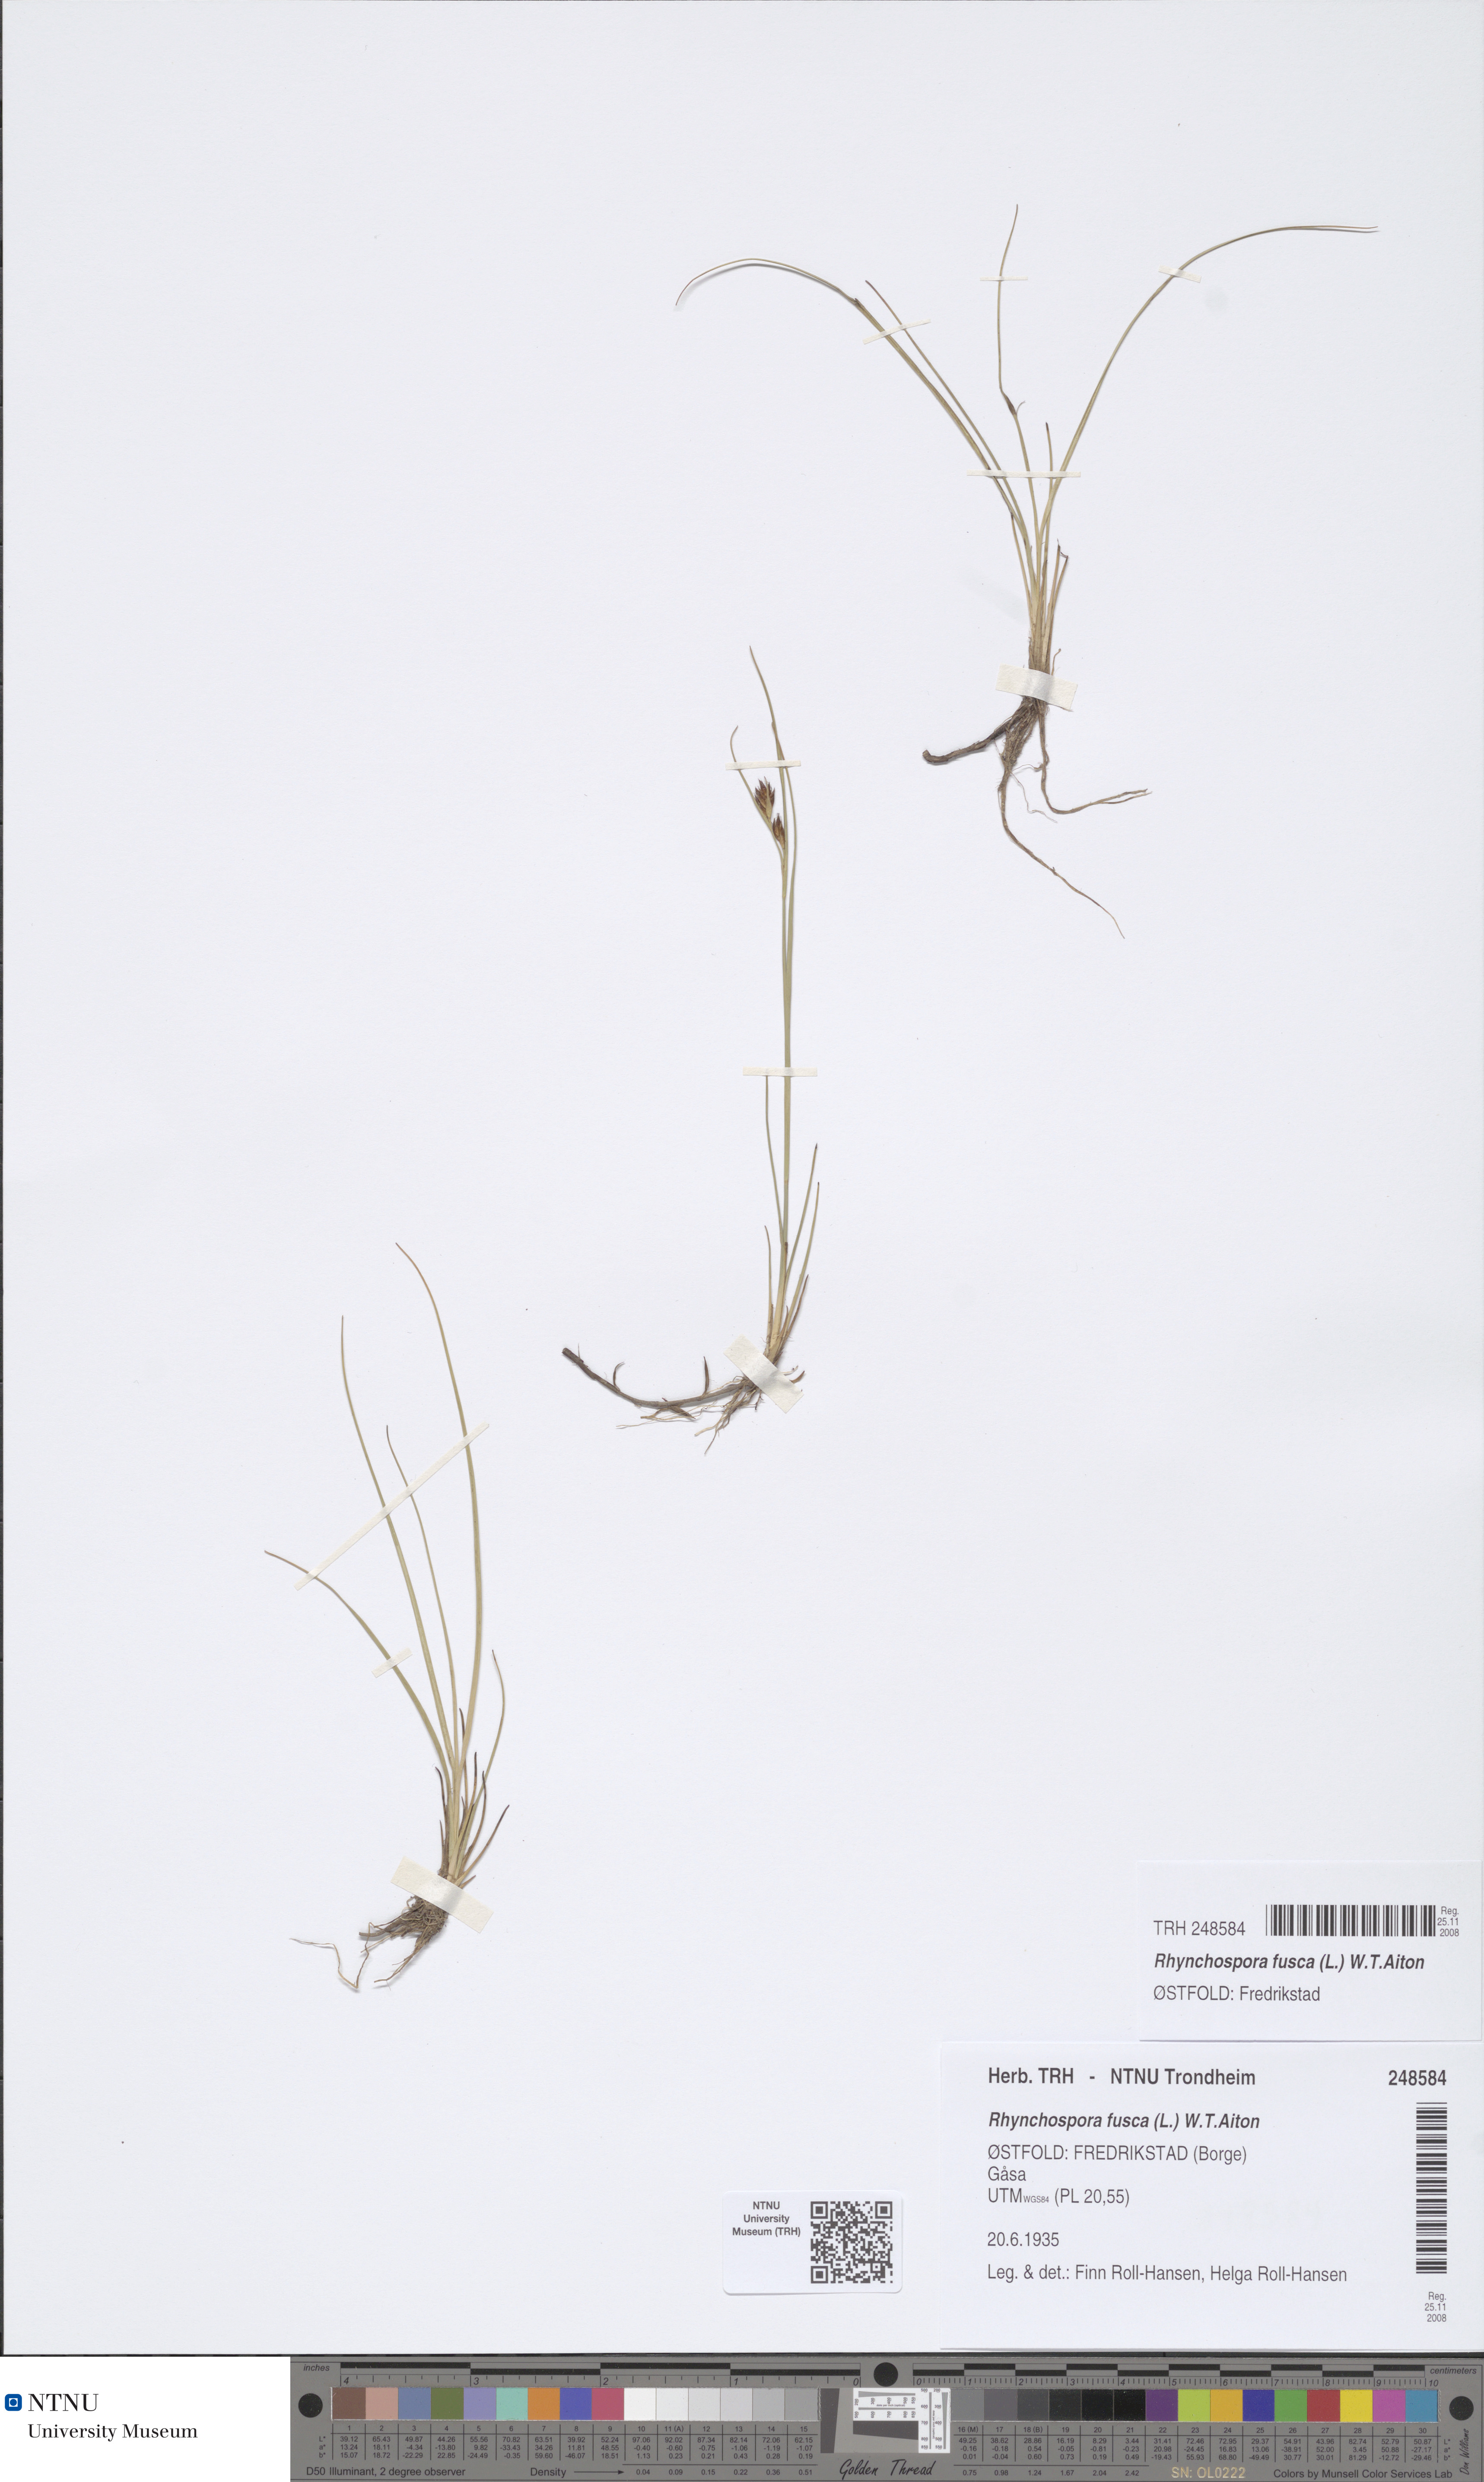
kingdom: Plantae
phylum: Tracheophyta
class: Liliopsida
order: Poales
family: Cyperaceae
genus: Rhynchospora
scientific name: Rhynchospora fusca
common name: Brown beak-sedge
